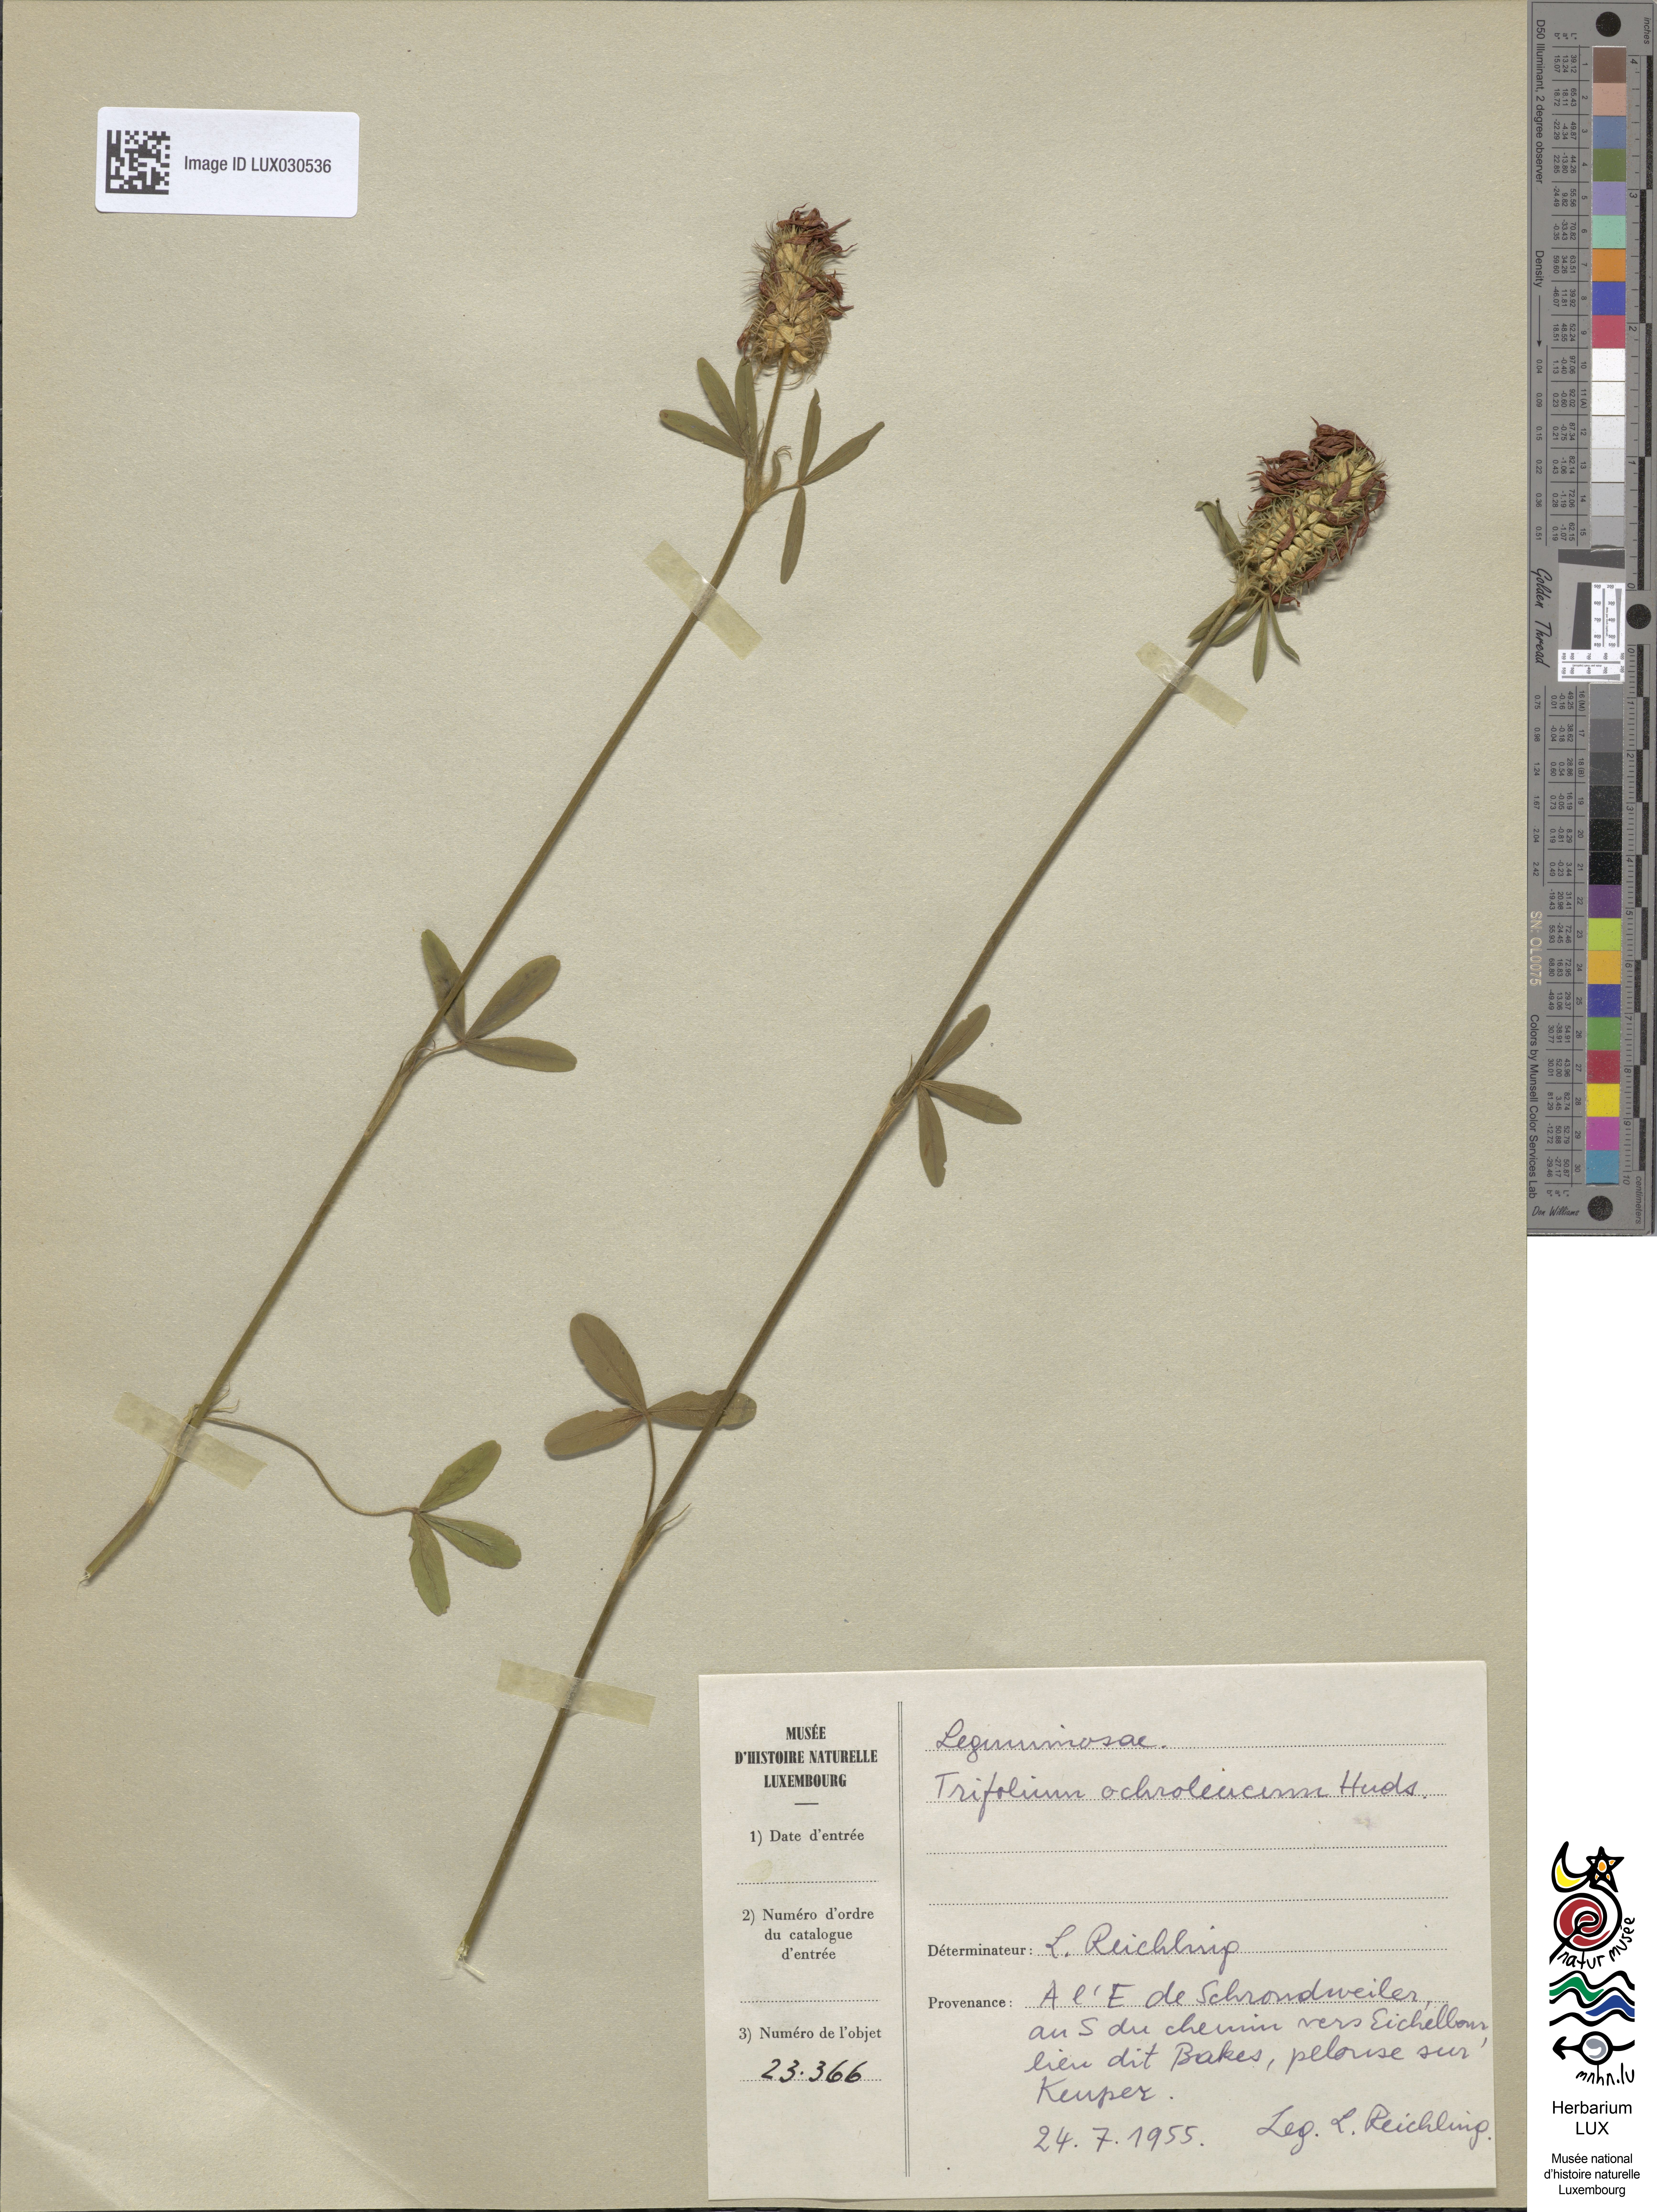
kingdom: Plantae
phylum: Tracheophyta
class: Magnoliopsida
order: Fabales
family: Fabaceae
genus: Trifolium
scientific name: Trifolium ochroleucon
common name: Sulphur clover
